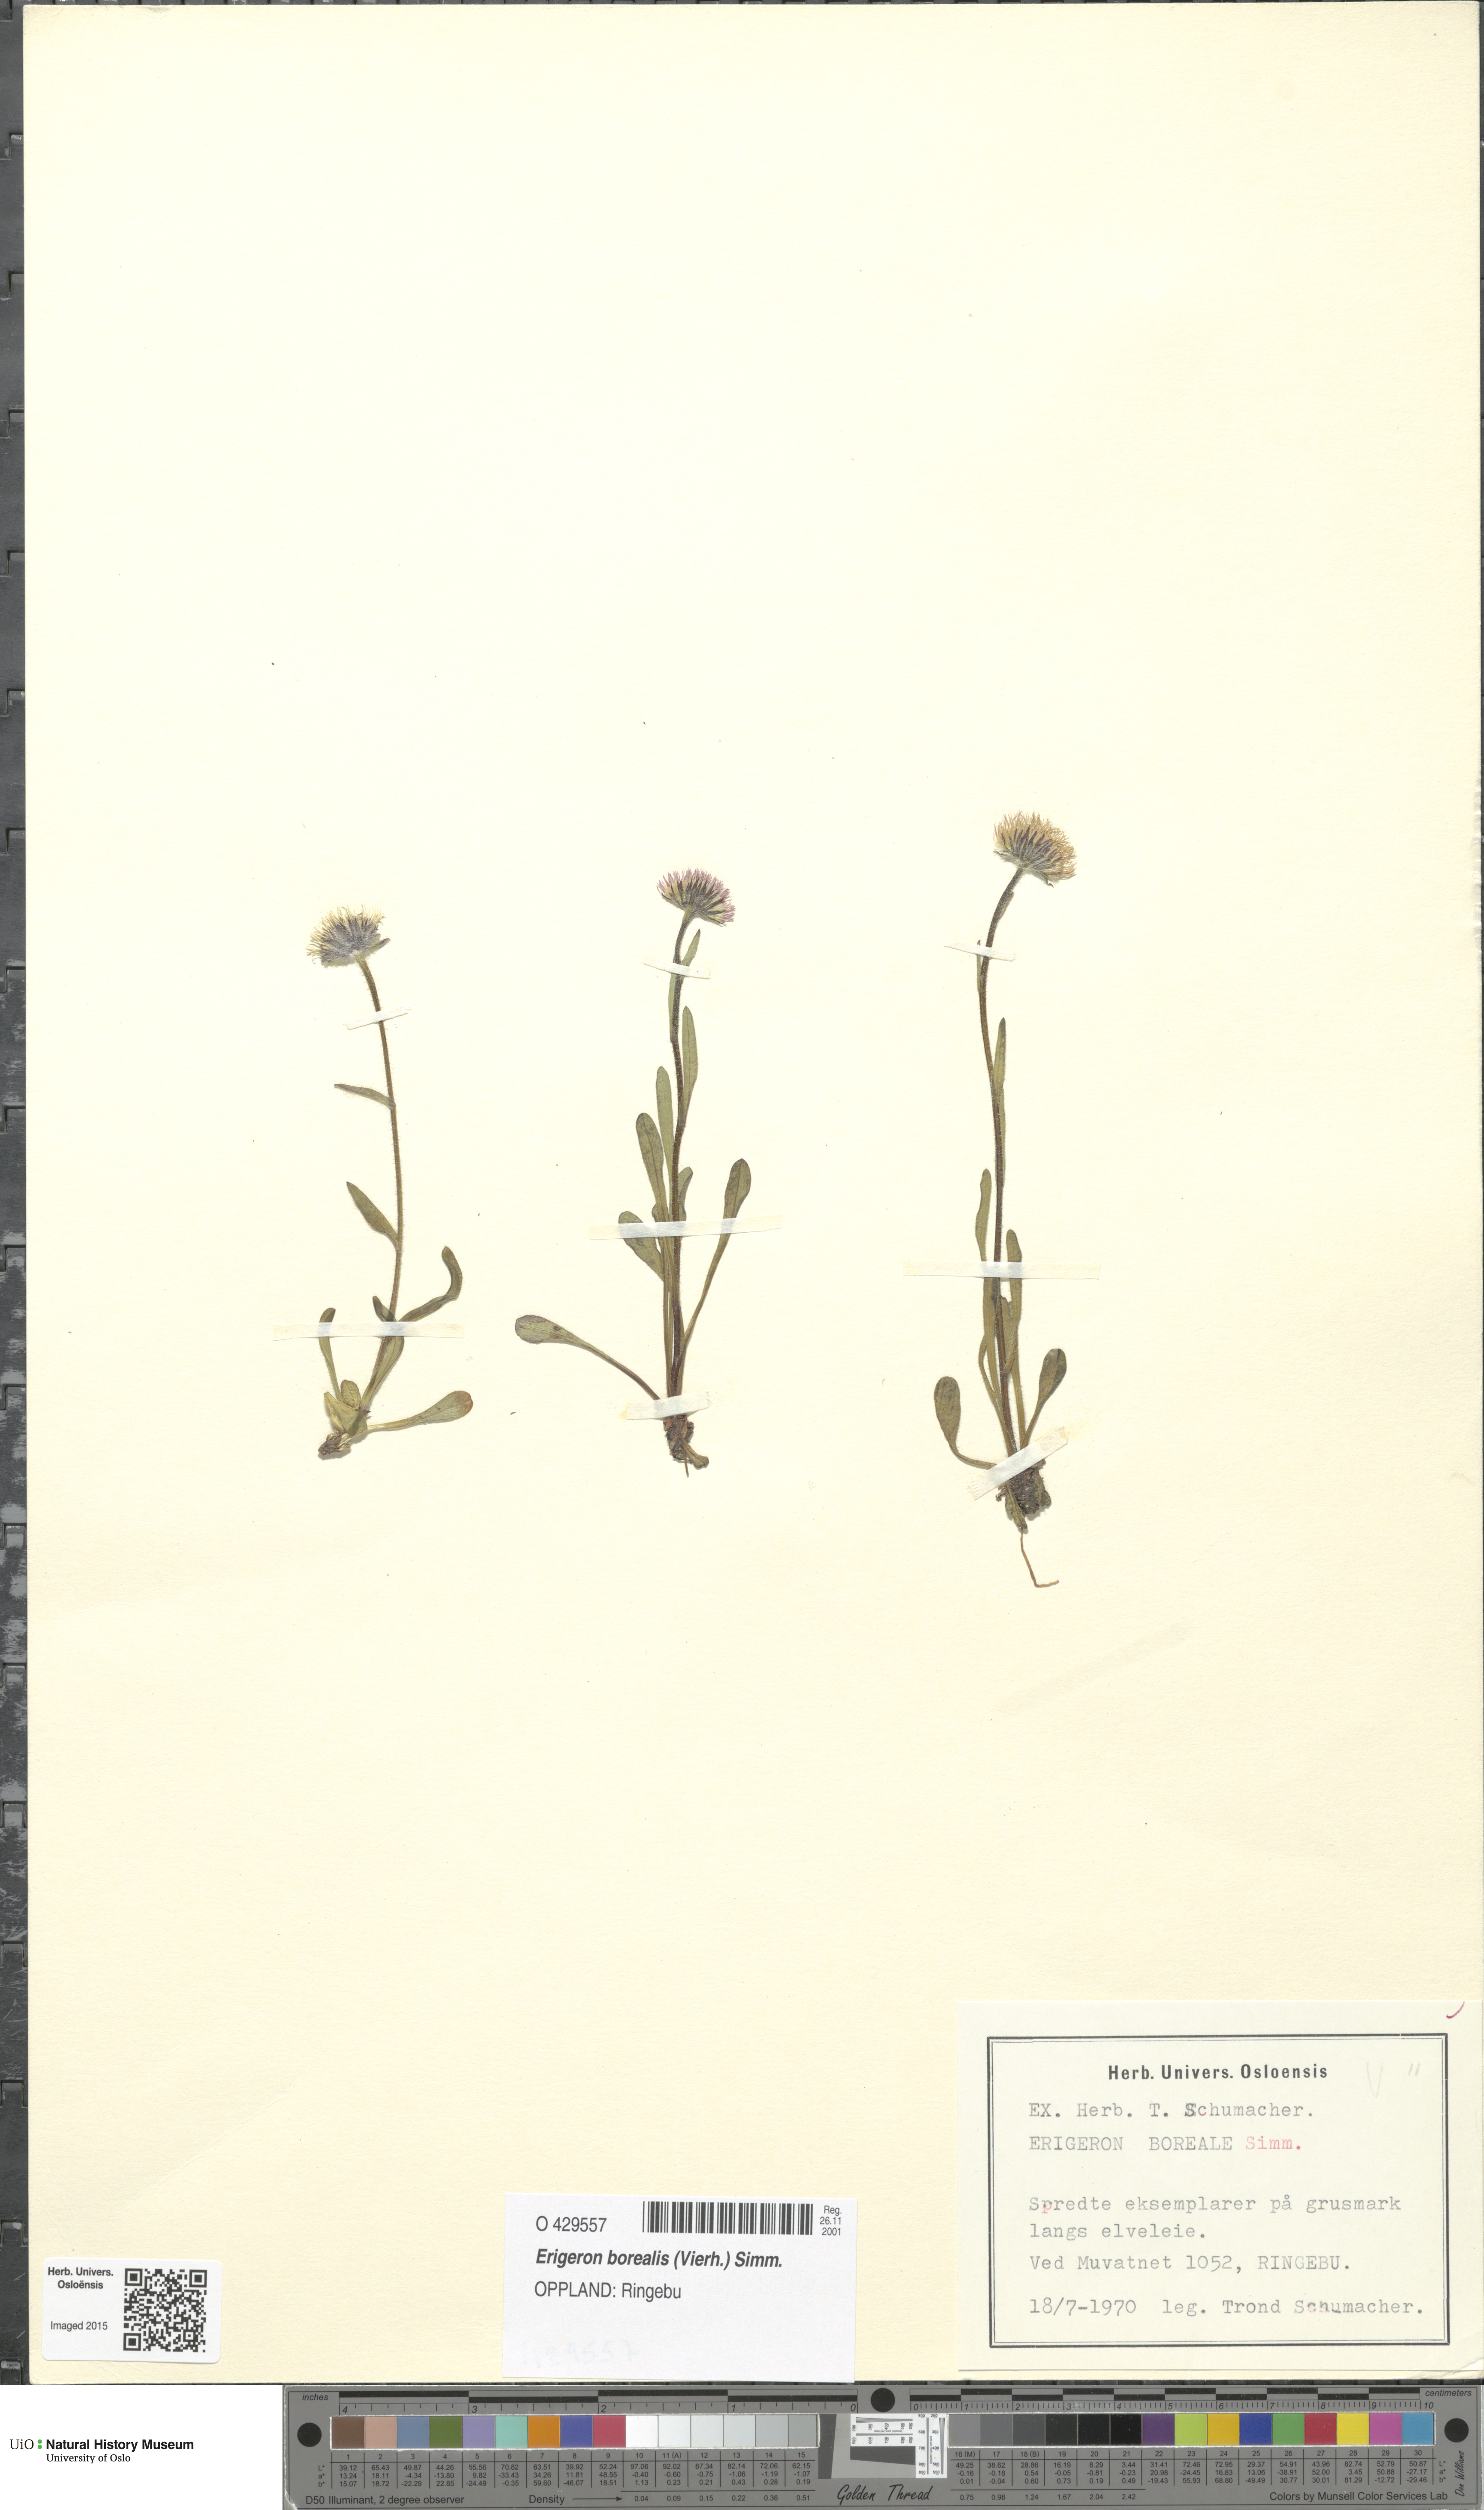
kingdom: Plantae
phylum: Tracheophyta
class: Magnoliopsida
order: Asterales
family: Asteraceae
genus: Erigeron
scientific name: Erigeron borealis
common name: Alpine fleabane
